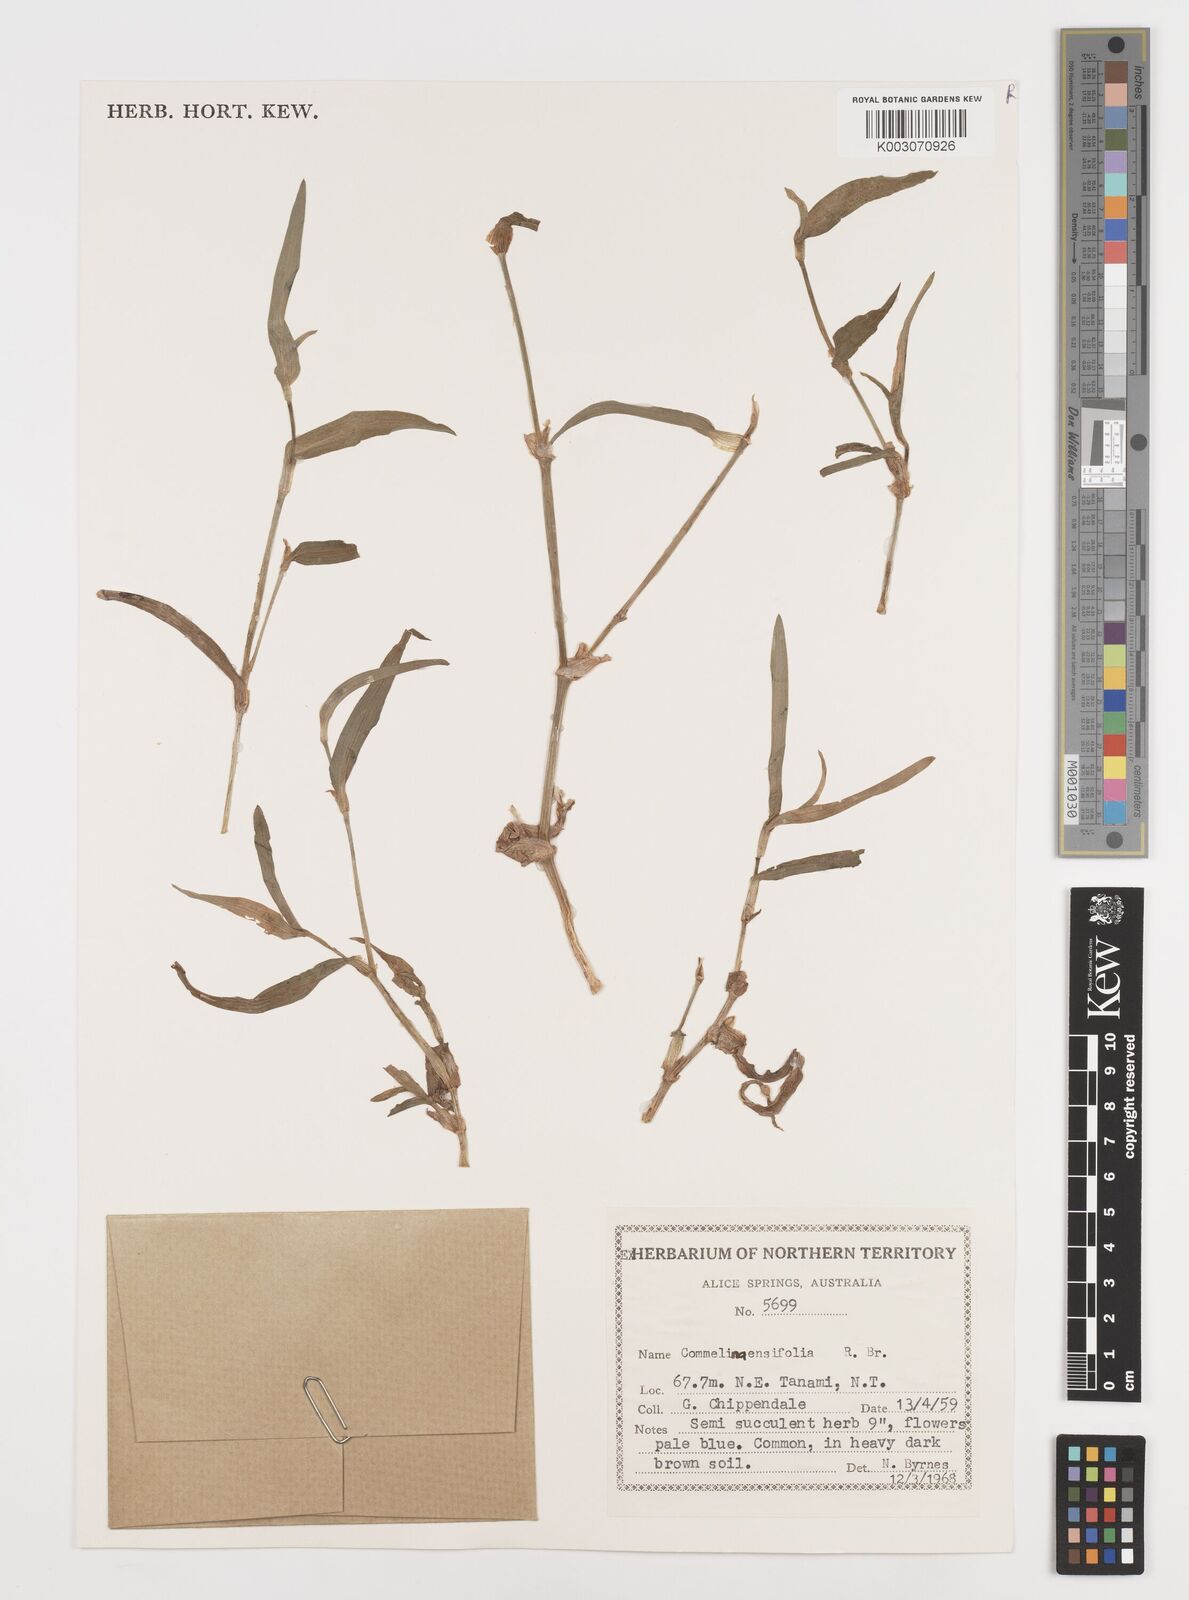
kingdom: Plantae
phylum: Tracheophyta
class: Liliopsida
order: Commelinales
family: Commelinaceae
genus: Commelina
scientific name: Commelina ensifolia
